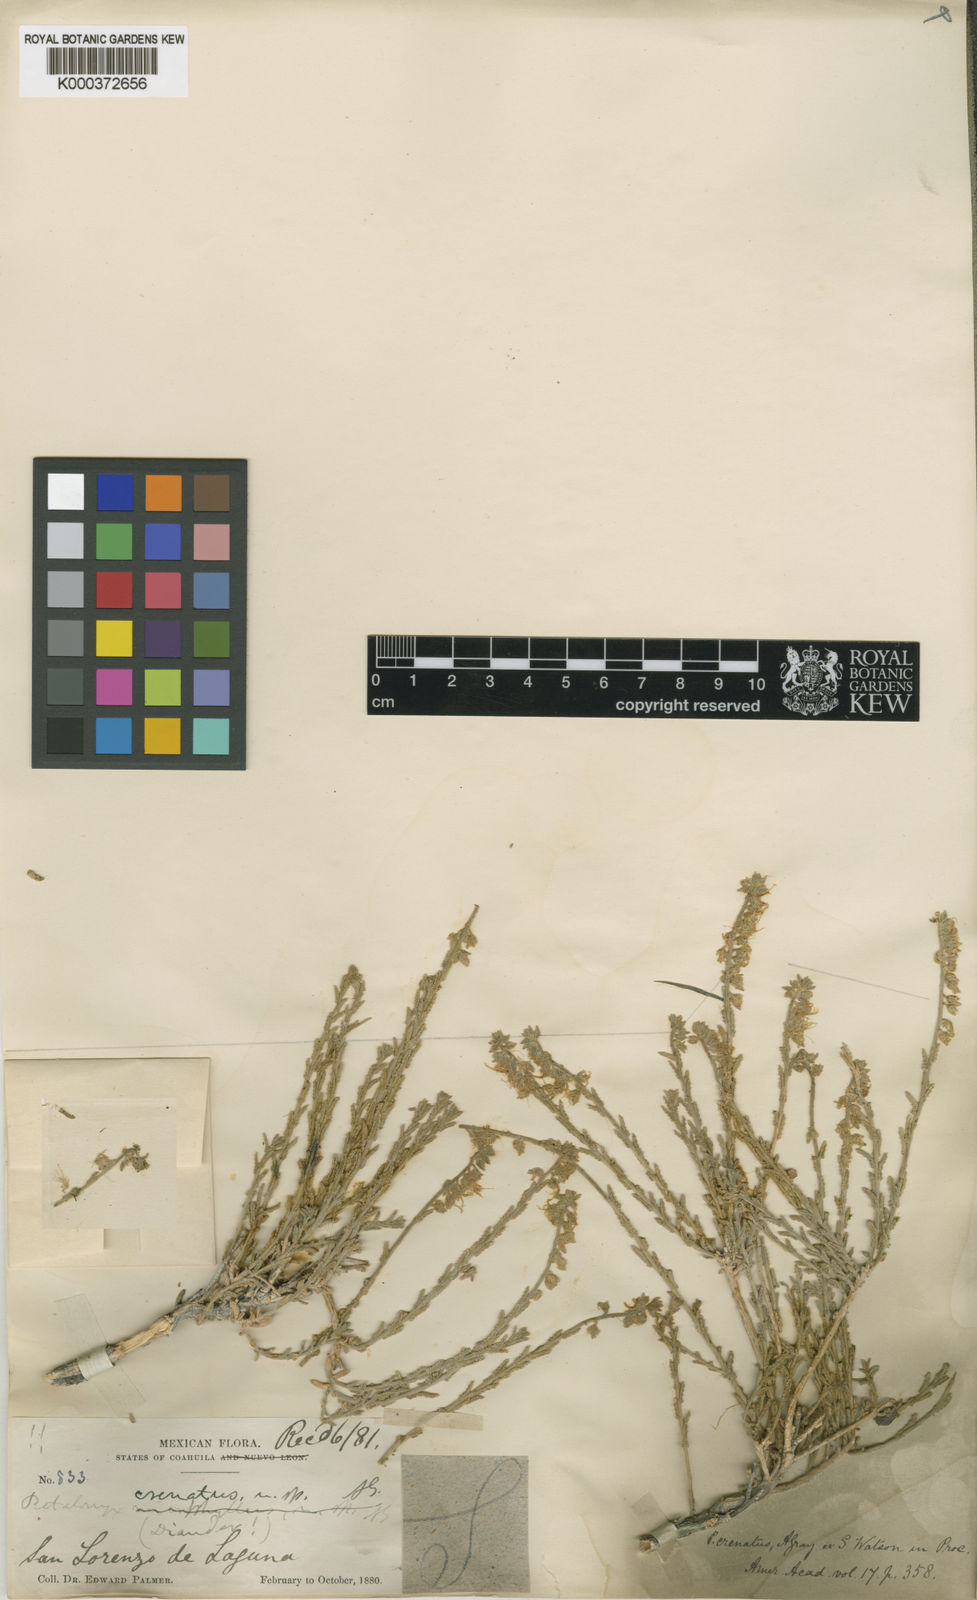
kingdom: Plantae
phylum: Tracheophyta
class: Magnoliopsida
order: Cornales
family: Loasaceae
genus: Petalonyx
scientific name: Petalonyx crenatus
